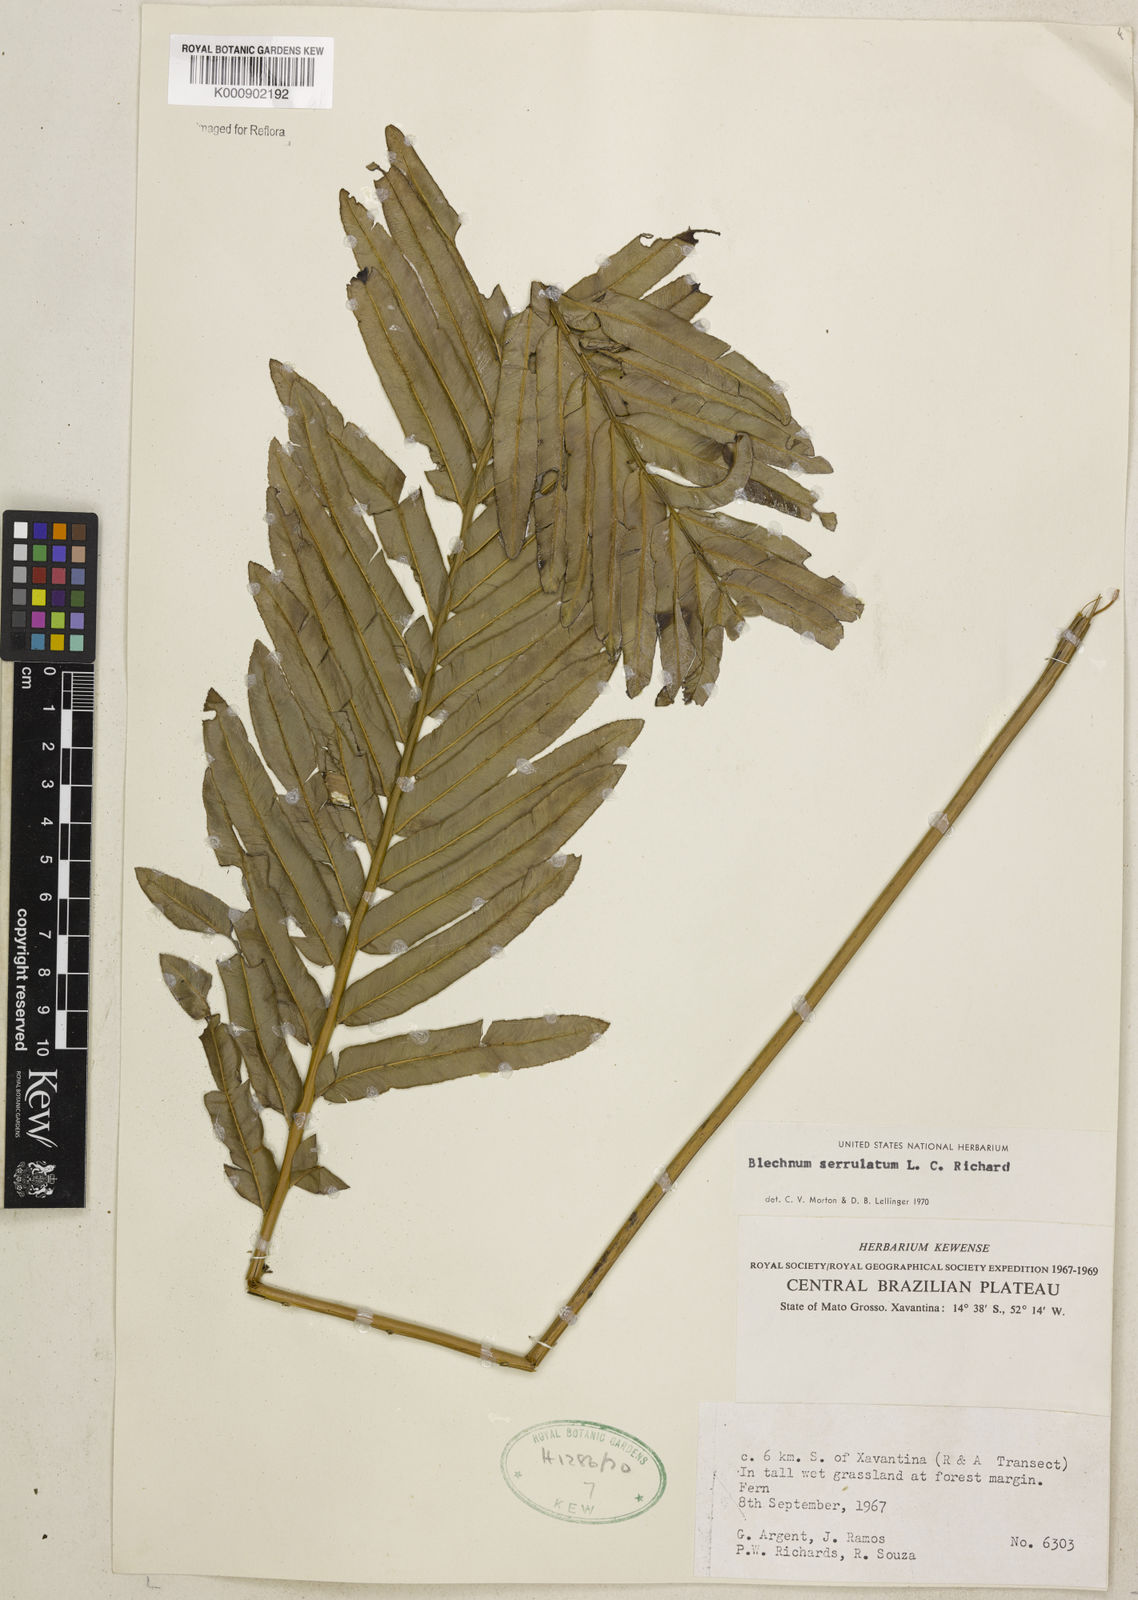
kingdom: Plantae
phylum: Tracheophyta
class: Polypodiopsida
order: Polypodiales
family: Blechnaceae
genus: Telmatoblechnum
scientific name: Telmatoblechnum serrulatum
